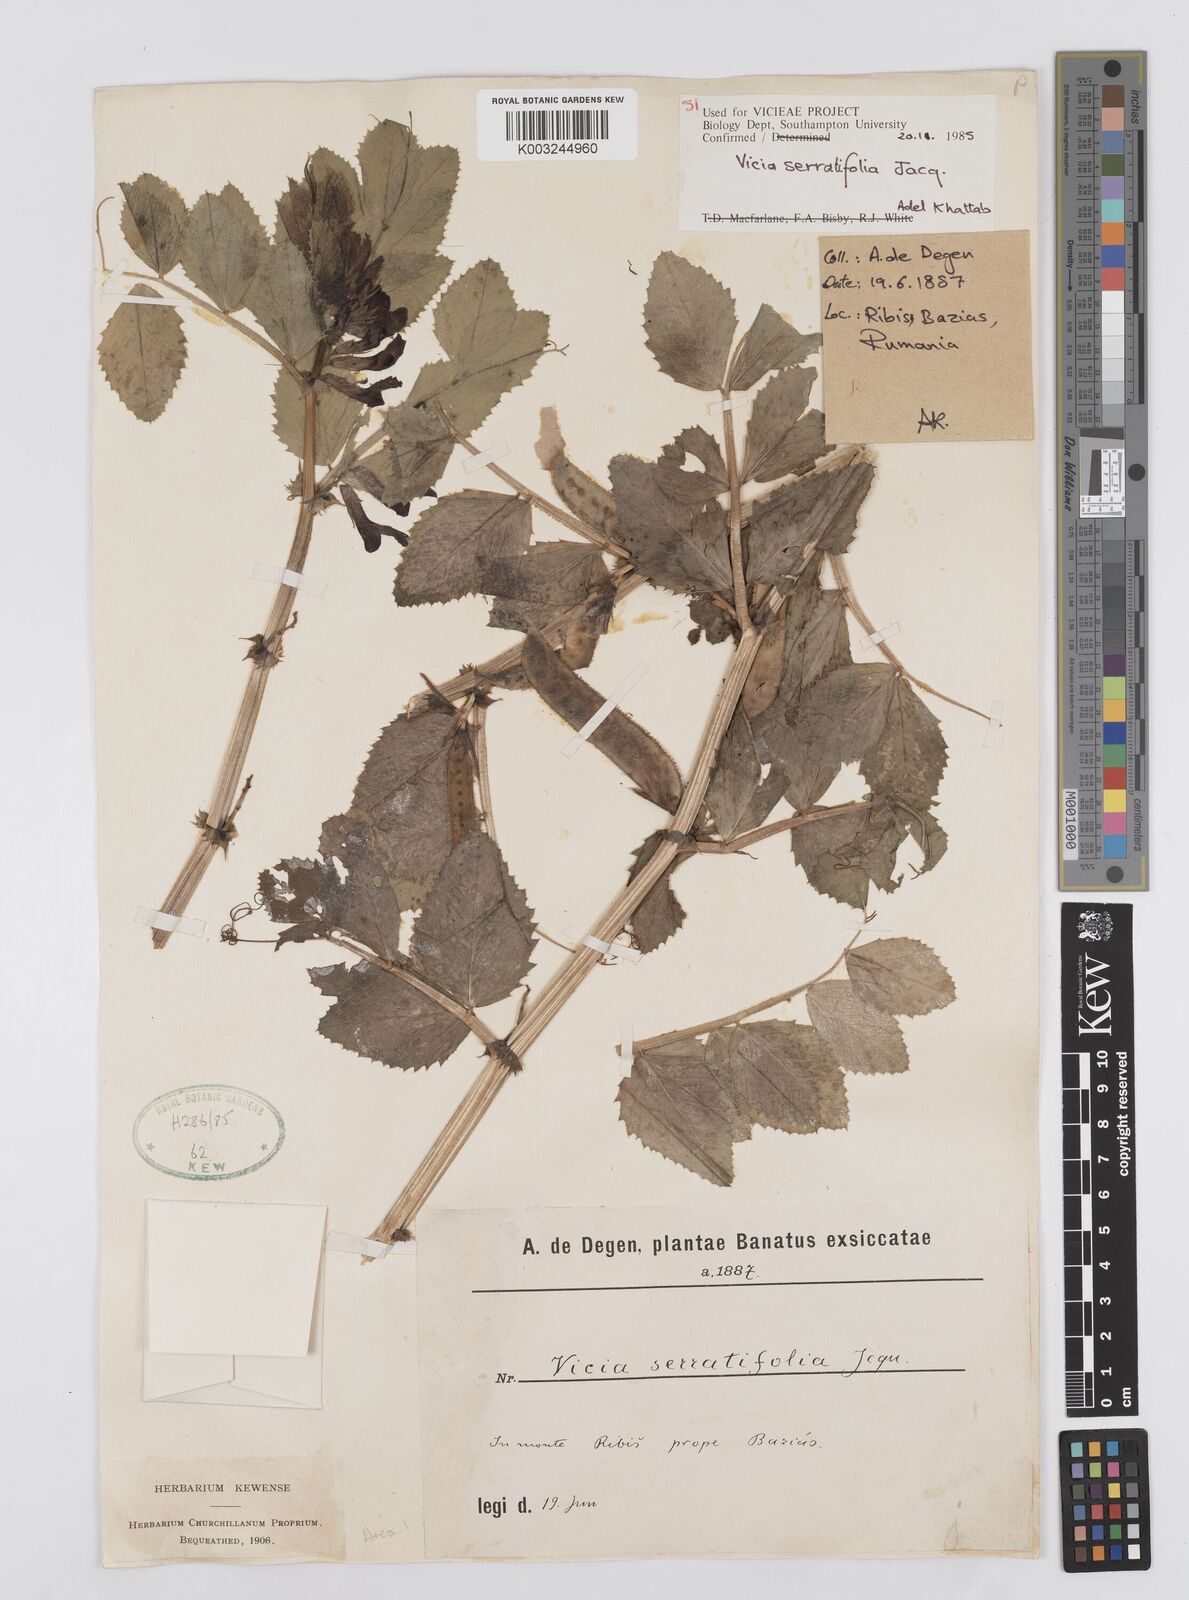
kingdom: Plantae
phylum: Tracheophyta
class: Magnoliopsida
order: Fabales
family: Fabaceae
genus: Vicia
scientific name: Vicia serratifolia
